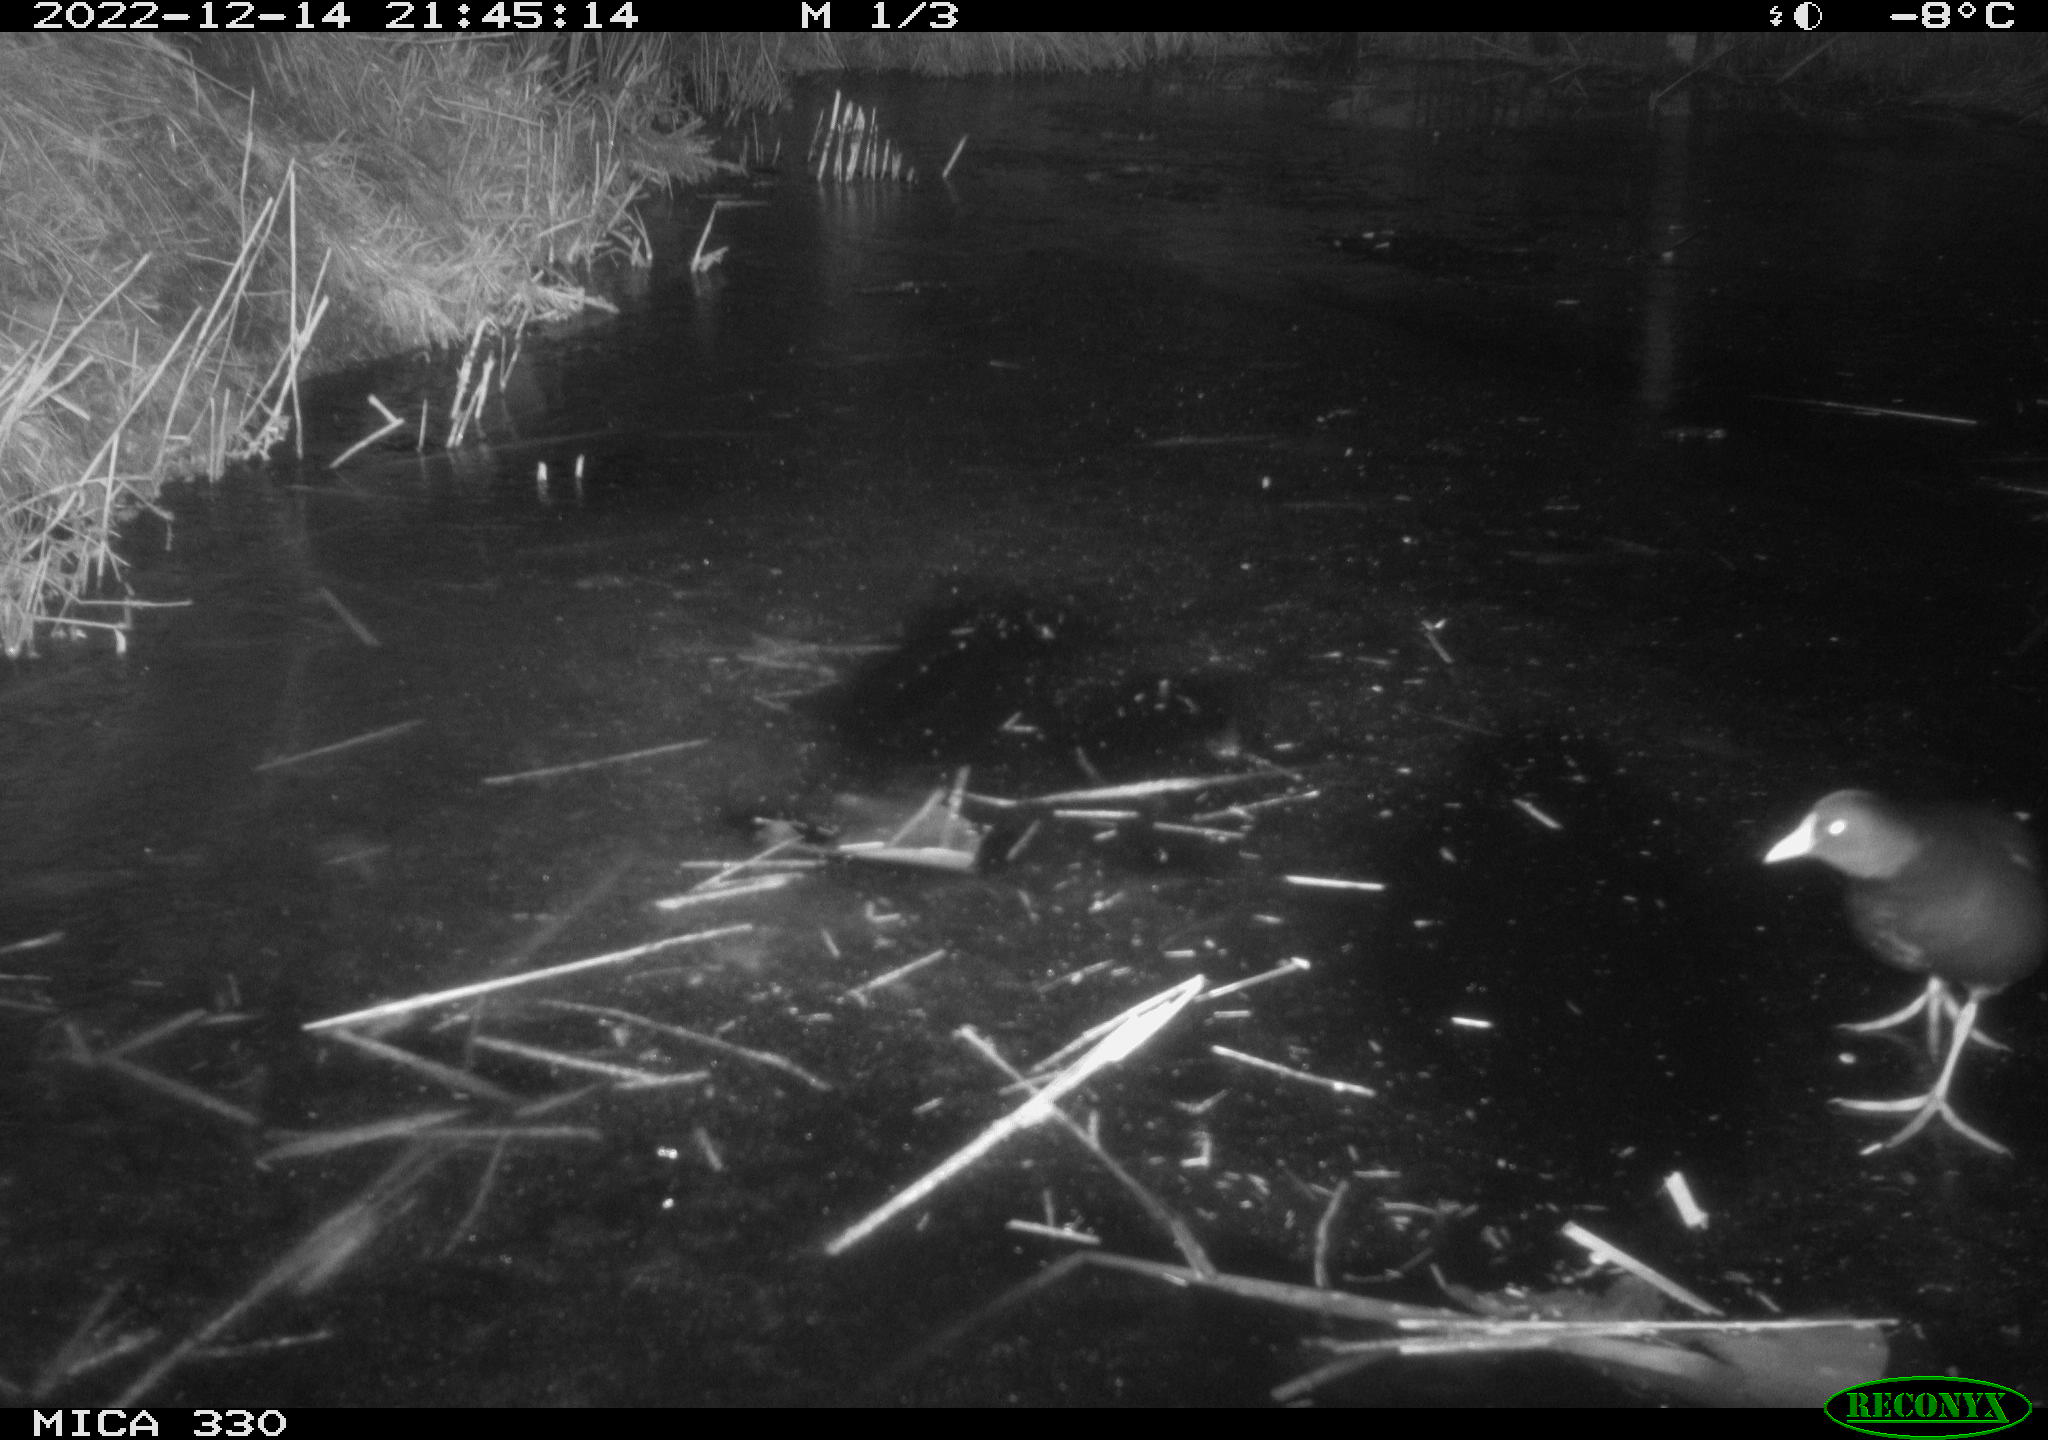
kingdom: Animalia
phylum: Chordata
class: Aves
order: Gruiformes
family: Rallidae
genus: Gallinula
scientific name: Gallinula chloropus
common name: Common moorhen
